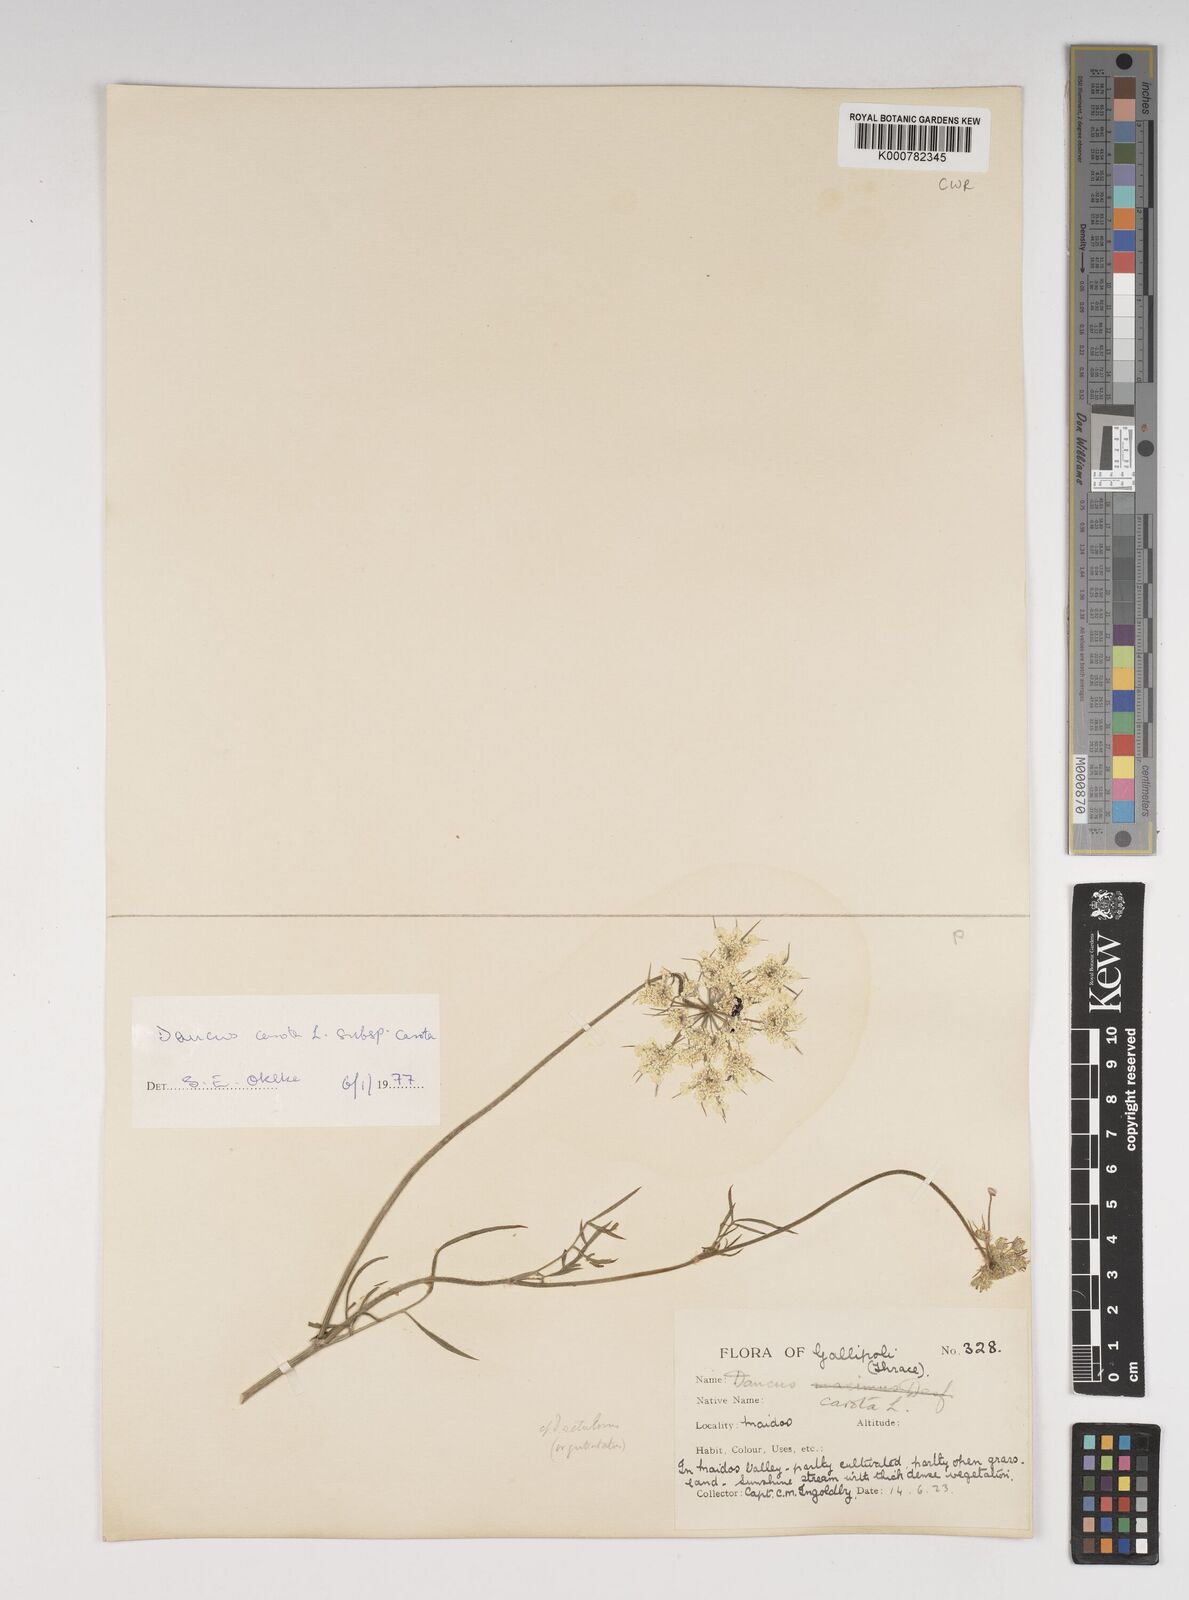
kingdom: Plantae
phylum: Tracheophyta
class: Magnoliopsida
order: Apiales
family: Apiaceae
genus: Daucus
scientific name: Daucus carota
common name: Wild carrot
